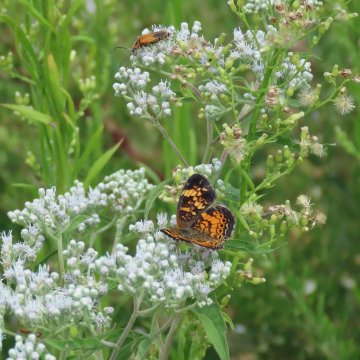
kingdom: Animalia
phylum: Arthropoda
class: Insecta
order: Lepidoptera
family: Nymphalidae
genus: Phyciodes
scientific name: Phyciodes tharos
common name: Pearl Crescent
